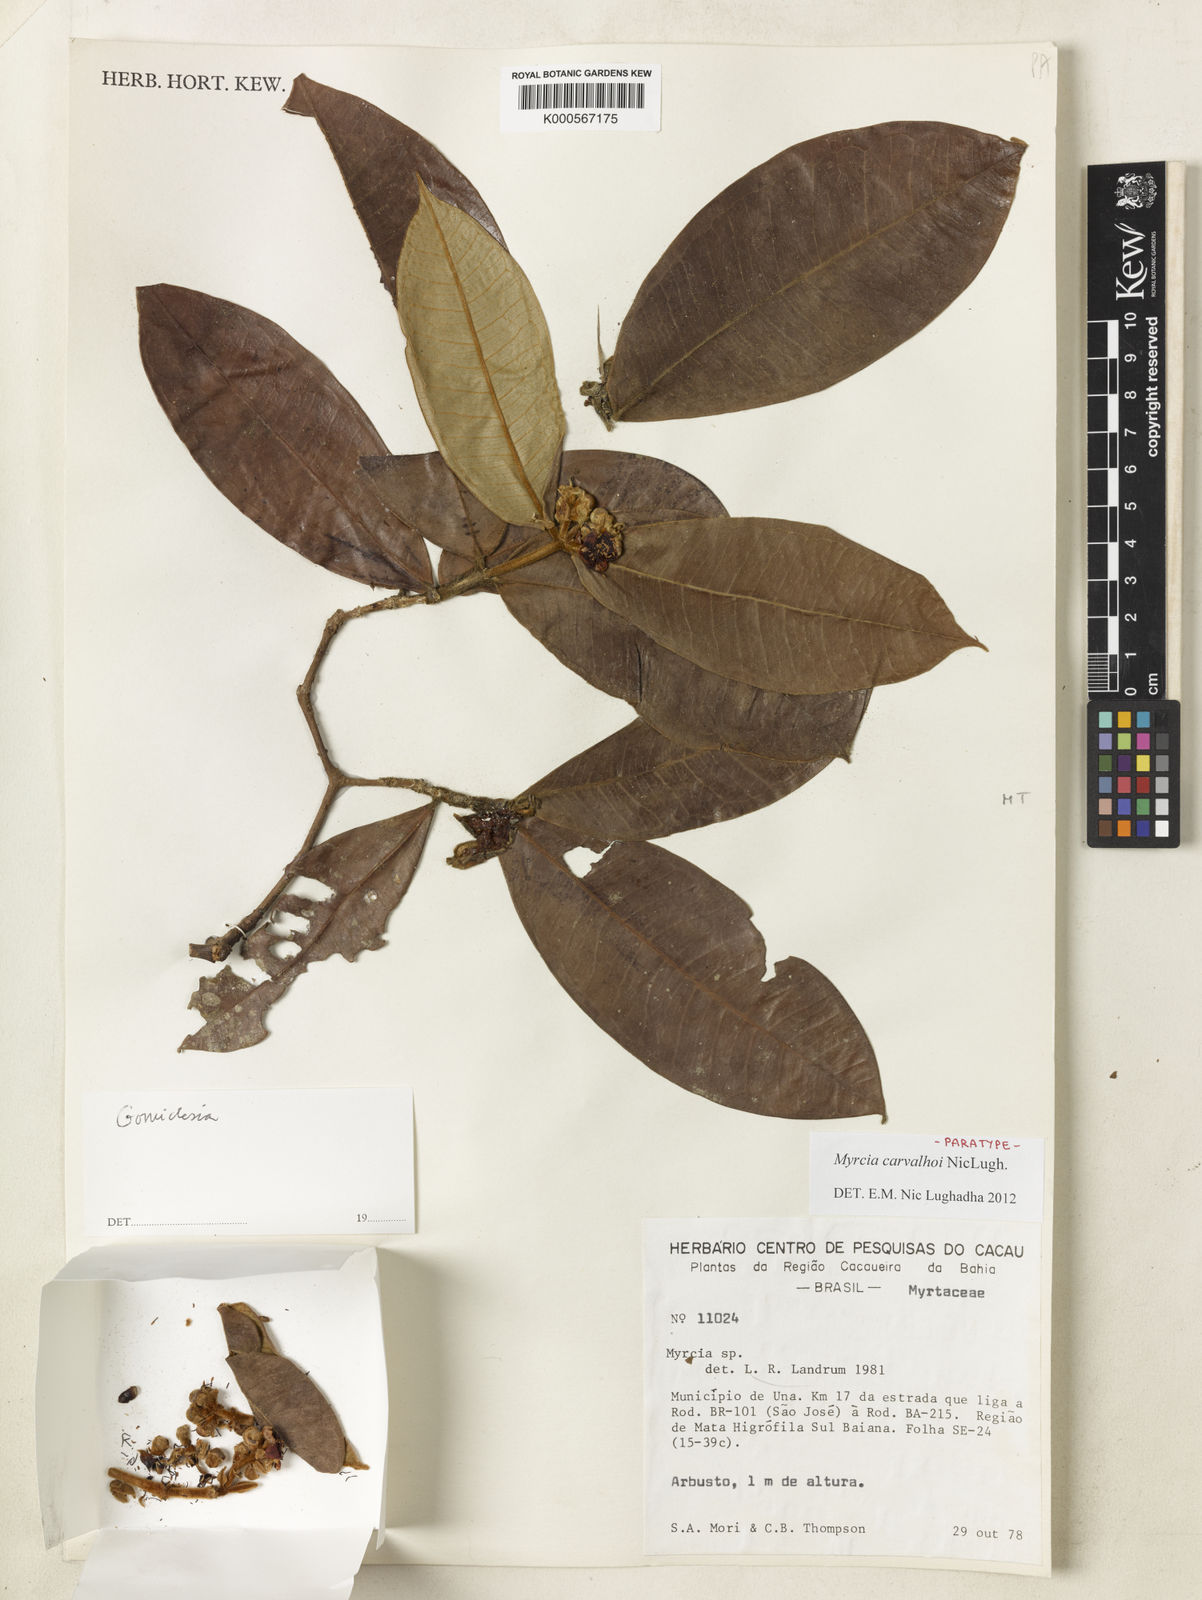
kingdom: Plantae
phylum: Tracheophyta
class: Magnoliopsida
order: Myrtales
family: Myrtaceae
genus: Myrcia
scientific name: Myrcia carvalhoi
